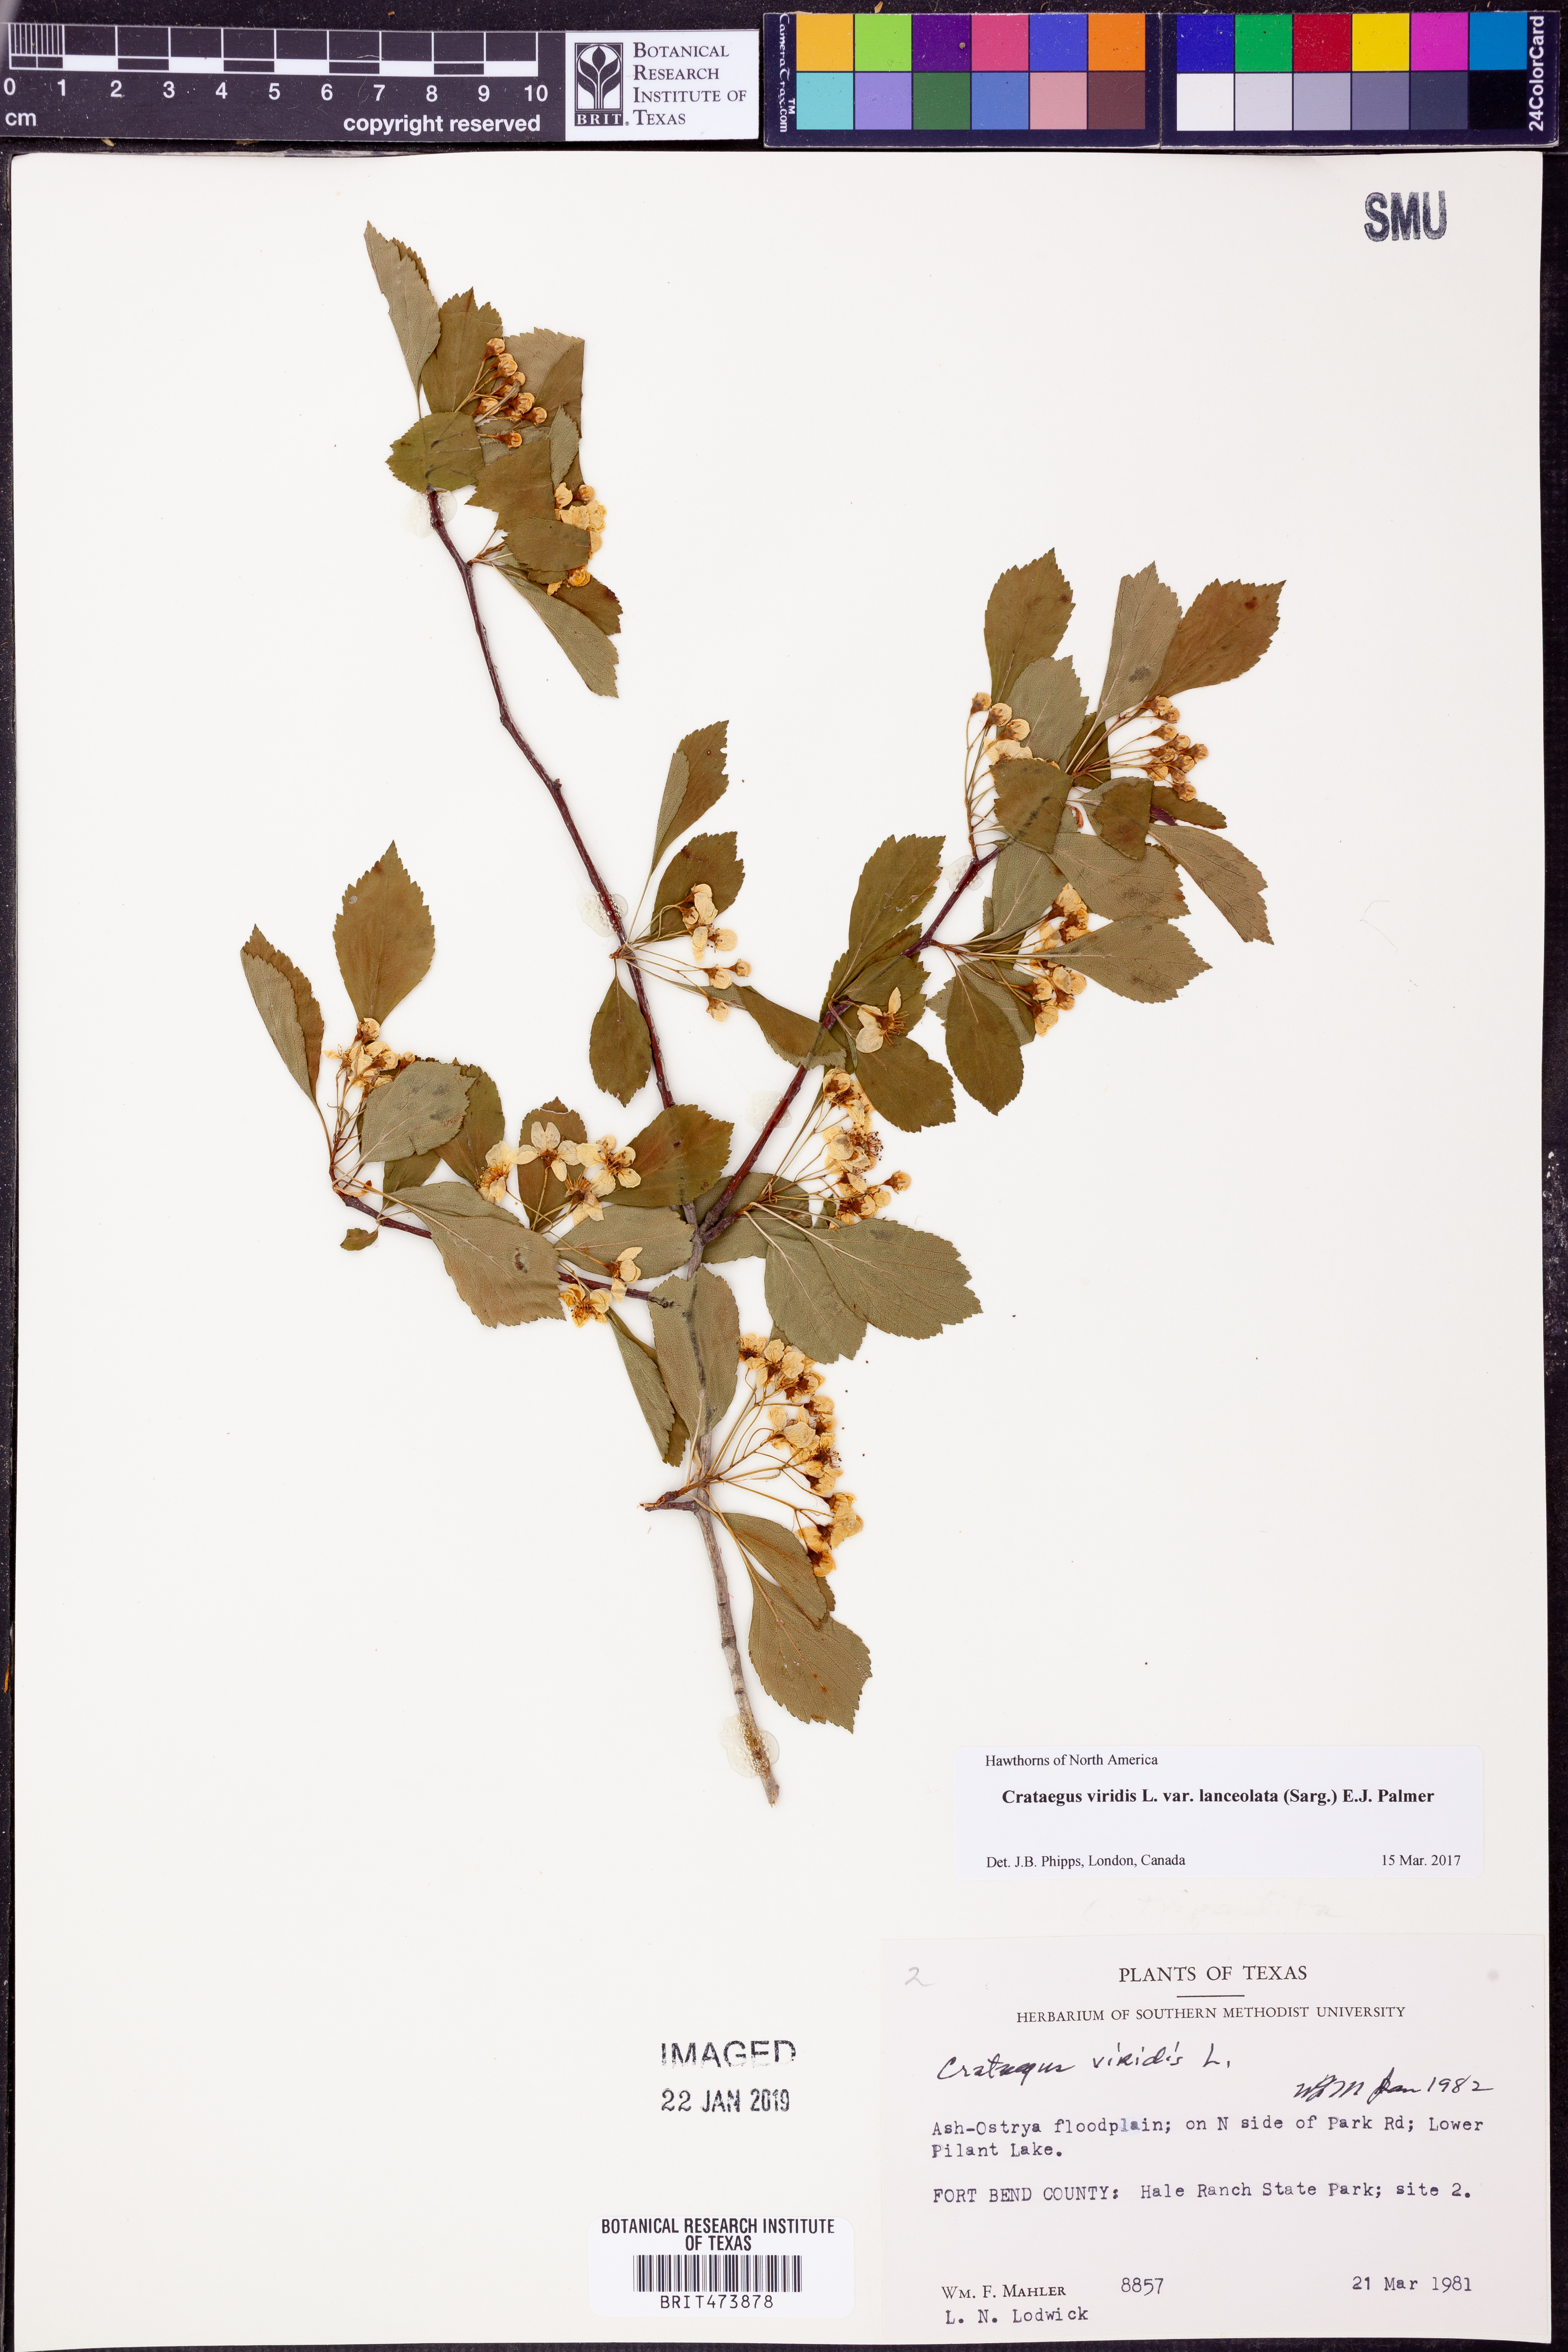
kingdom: Plantae
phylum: Tracheophyta
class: Magnoliopsida
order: Rosales
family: Rosaceae
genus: Crataegus
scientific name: Crataegus viridis
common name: Southernthorn
